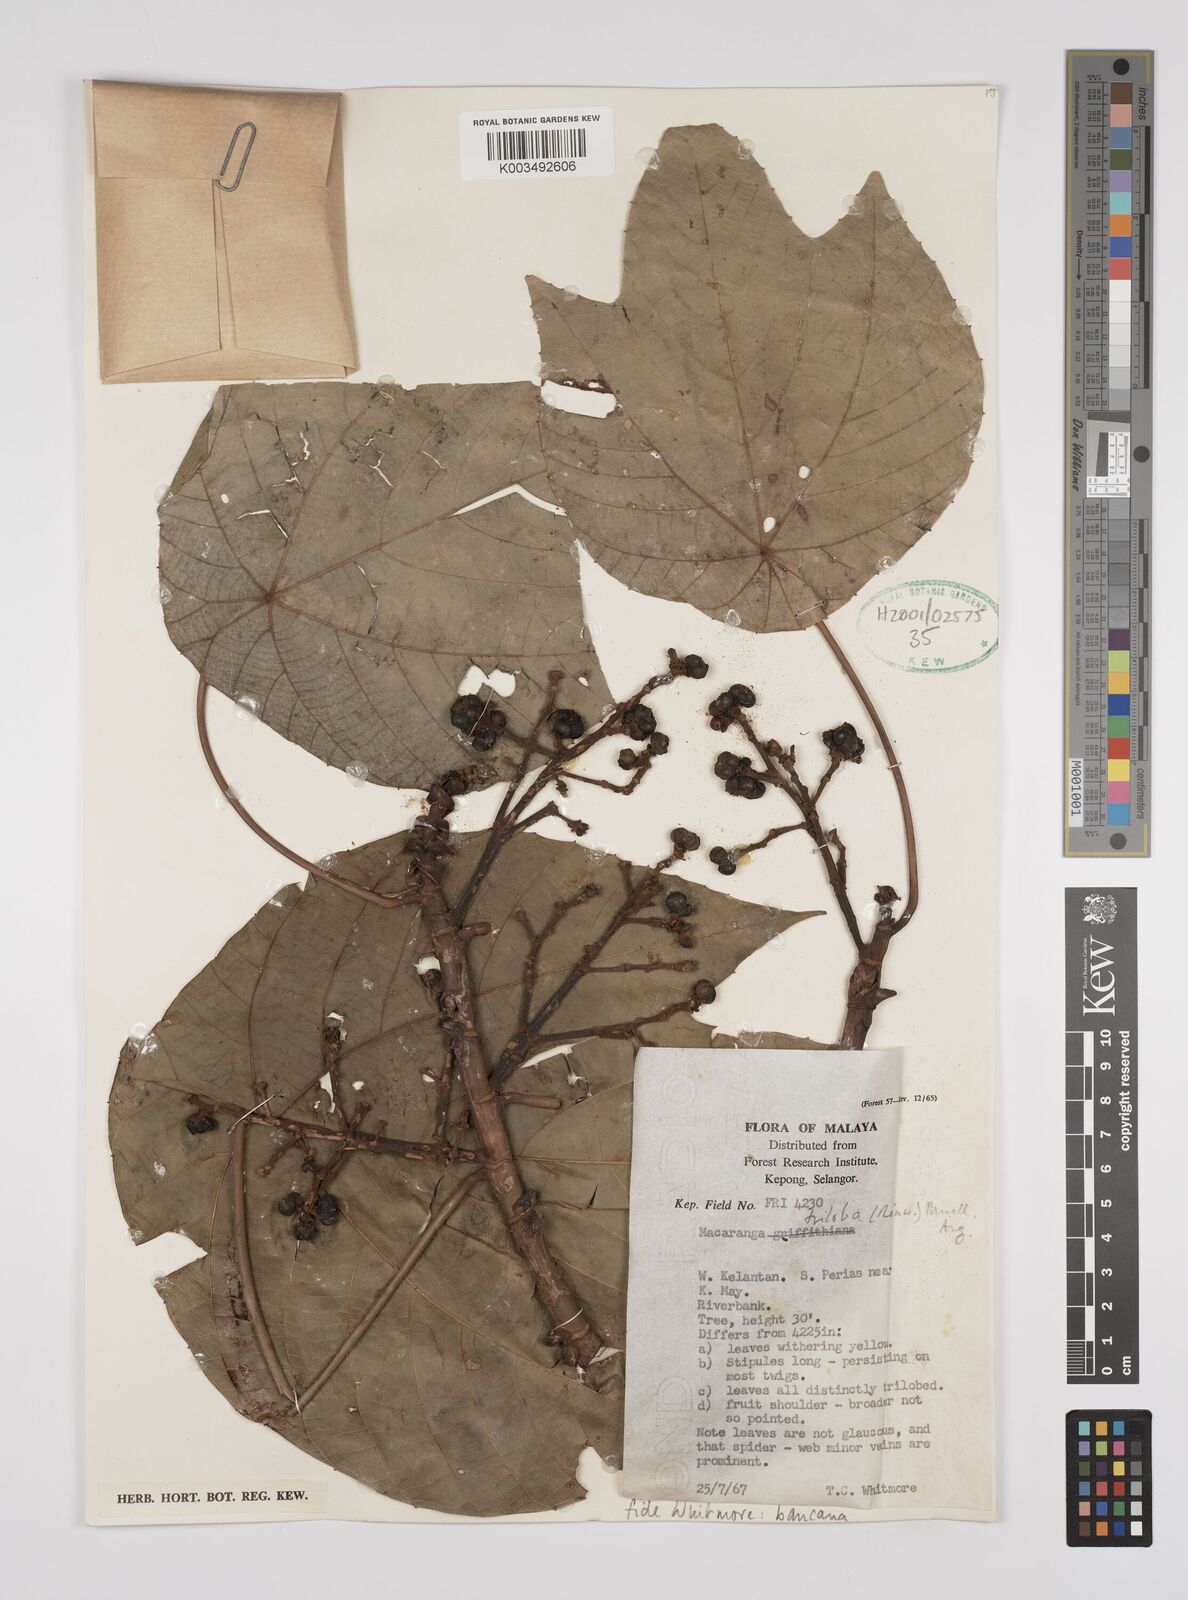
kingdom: Plantae
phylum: Tracheophyta
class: Magnoliopsida
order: Malpighiales
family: Euphorbiaceae
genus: Macaranga
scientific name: Macaranga bancana
